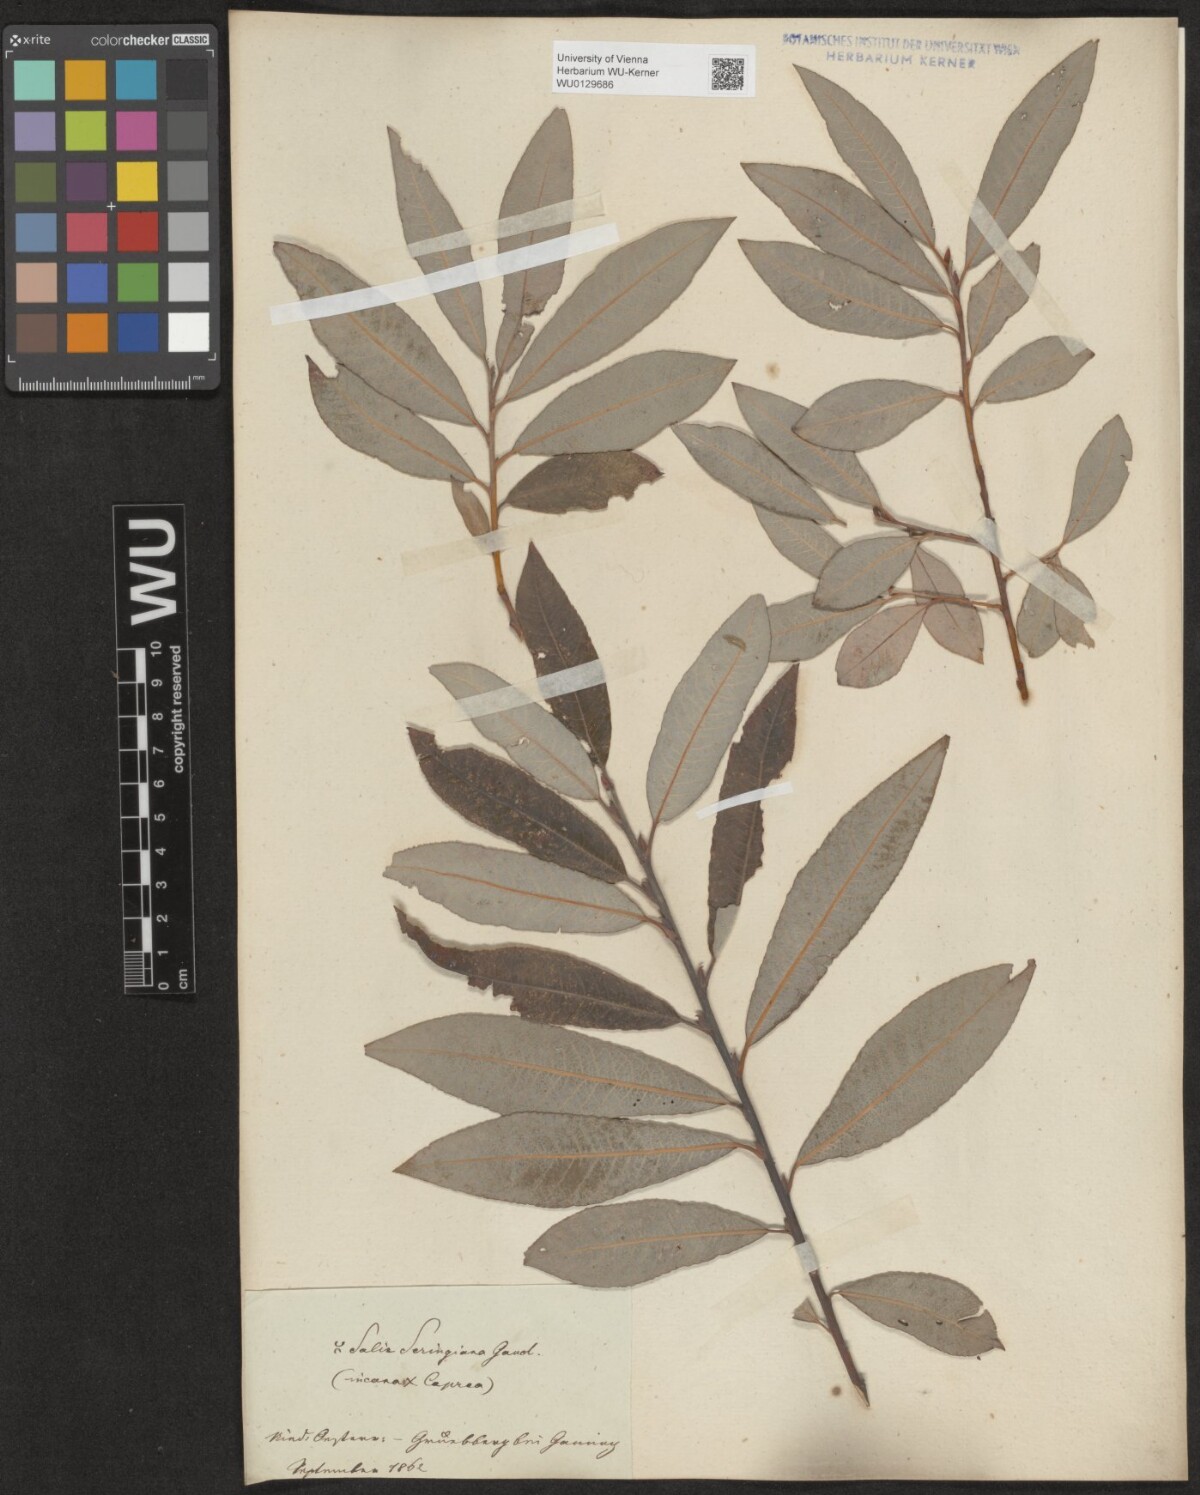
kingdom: Plantae
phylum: Tracheophyta
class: Magnoliopsida
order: Malpighiales
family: Salicaceae
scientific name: Salicaceae
